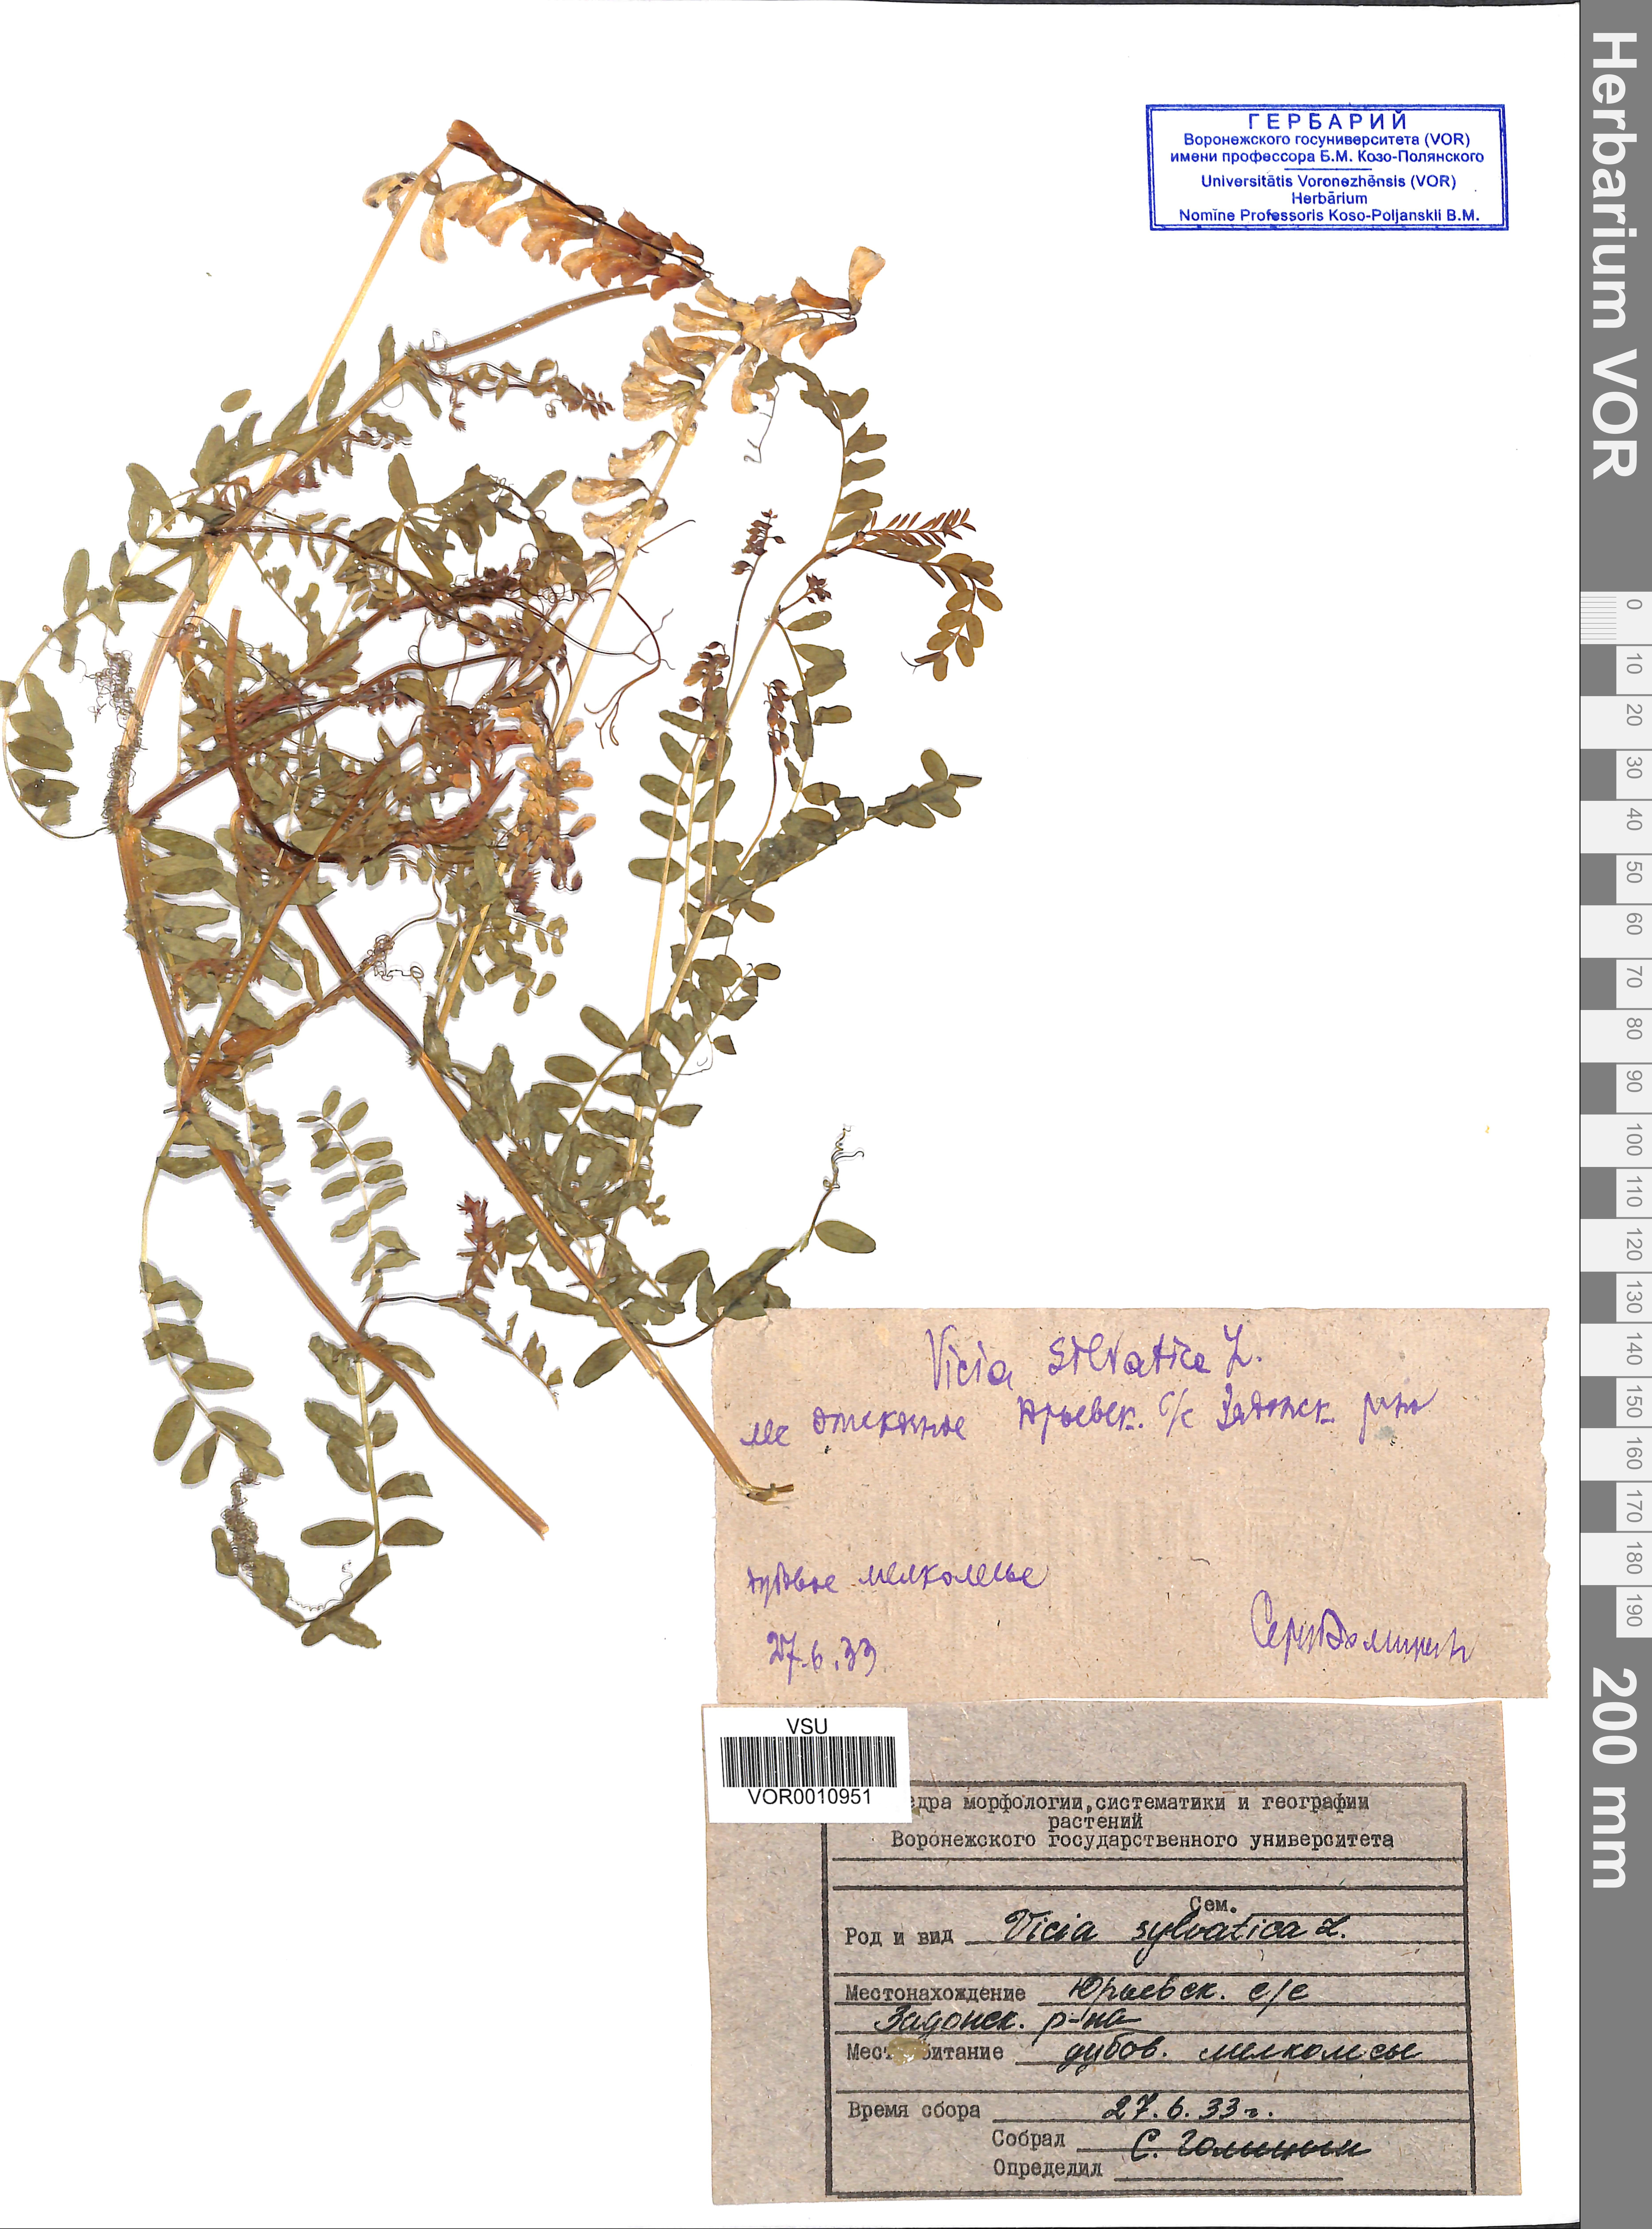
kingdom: Plantae
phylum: Tracheophyta
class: Magnoliopsida
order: Fabales
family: Fabaceae
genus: Vicia
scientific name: Vicia sylvatica
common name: Wood vetch
